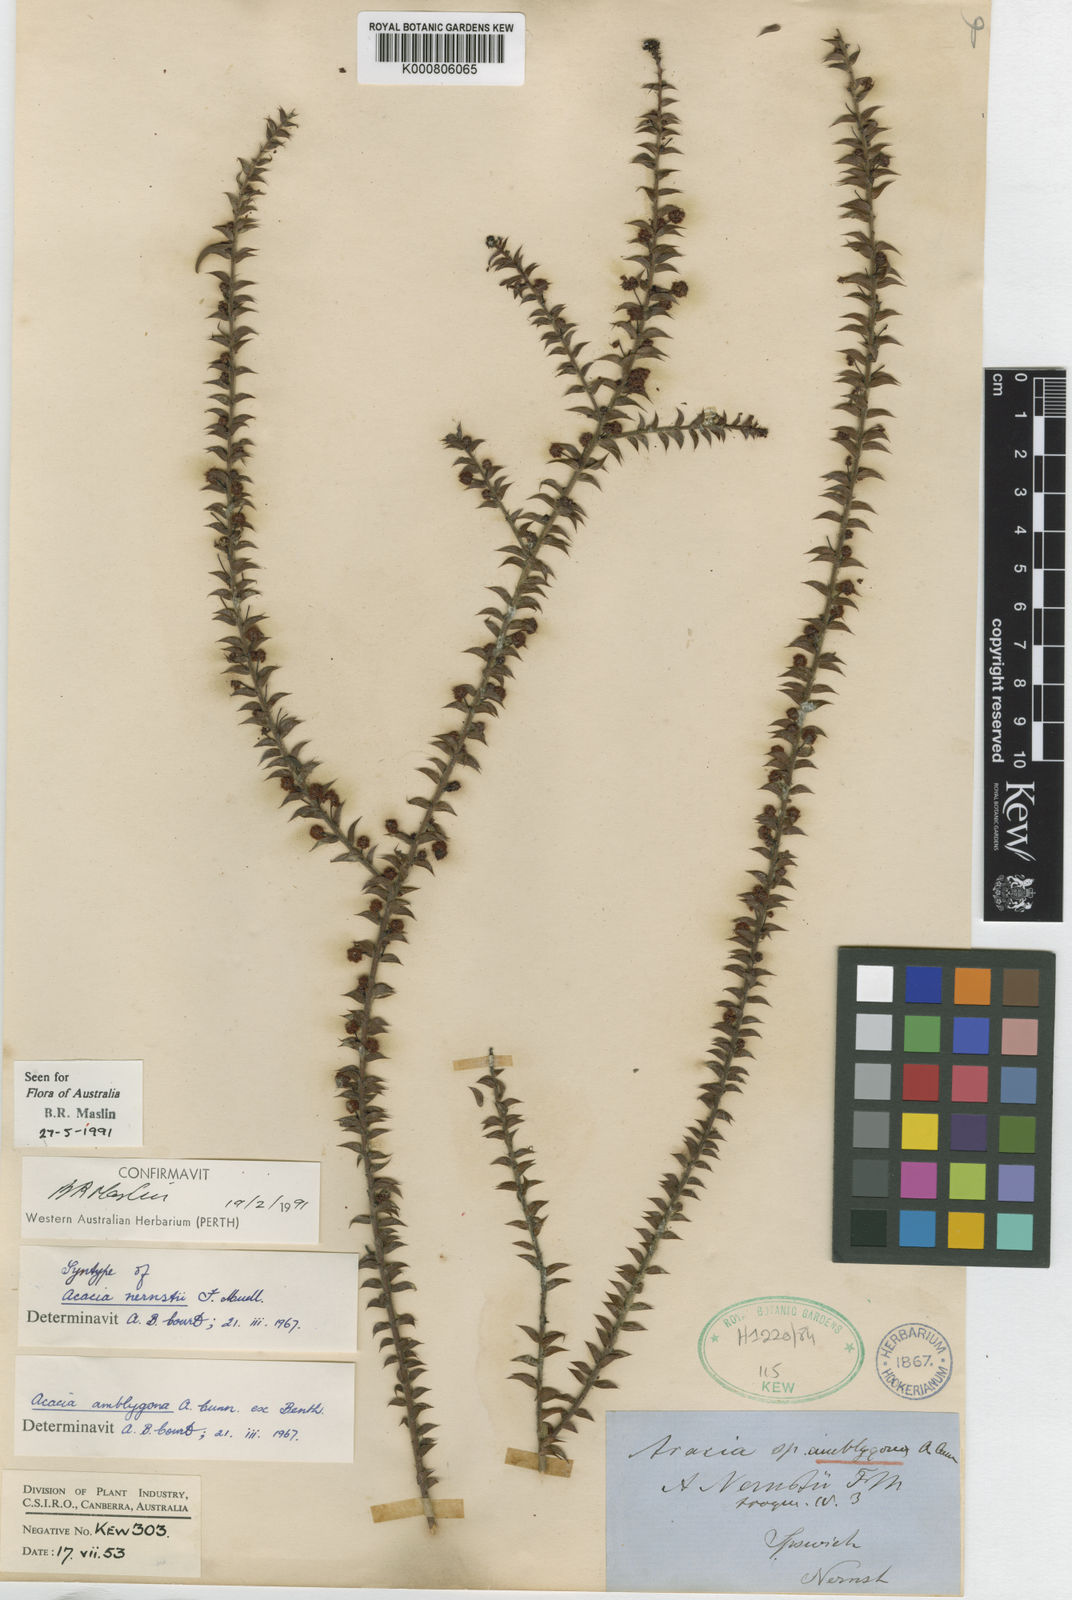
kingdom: Plantae
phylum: Tracheophyta
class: Magnoliopsida
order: Fabales
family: Fabaceae
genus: Acacia
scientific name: Acacia amblygona
